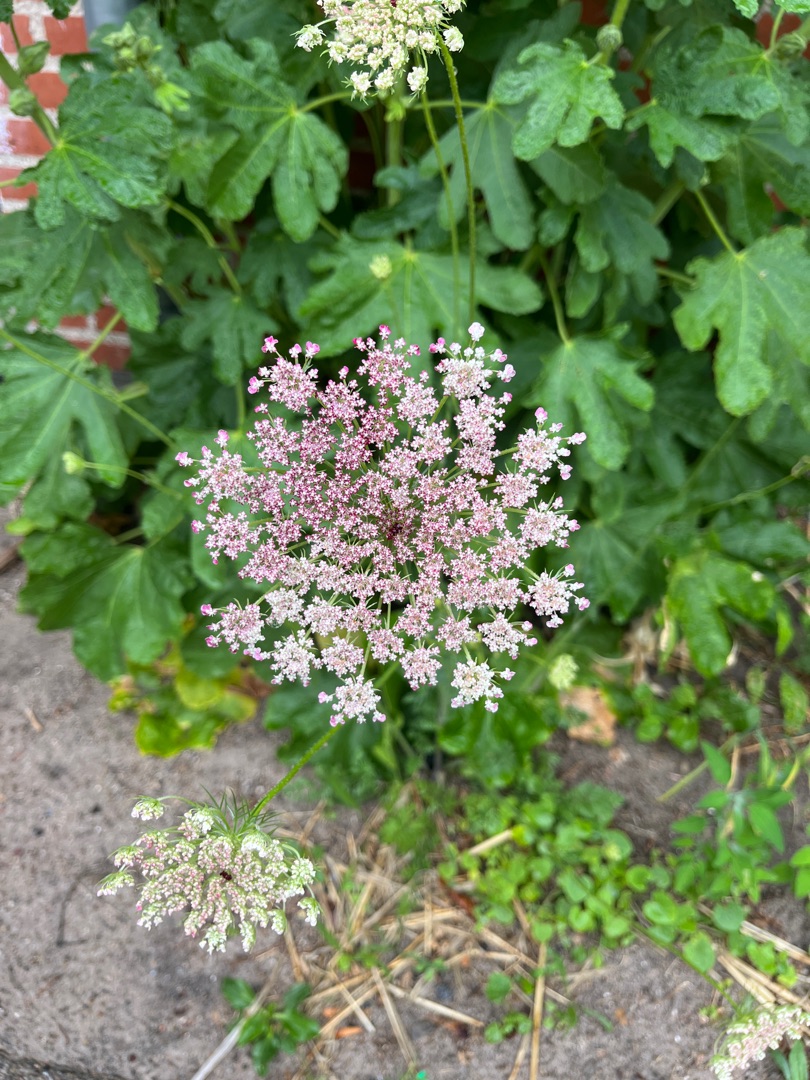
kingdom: Plantae
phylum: Tracheophyta
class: Magnoliopsida
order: Apiales
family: Apiaceae
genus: Daucus
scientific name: Daucus carota
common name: Gulerod
